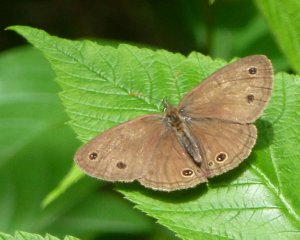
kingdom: Animalia
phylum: Arthropoda
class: Insecta
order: Lepidoptera
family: Nymphalidae
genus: Euptychia
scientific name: Euptychia cymela
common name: Little Wood Satyr
